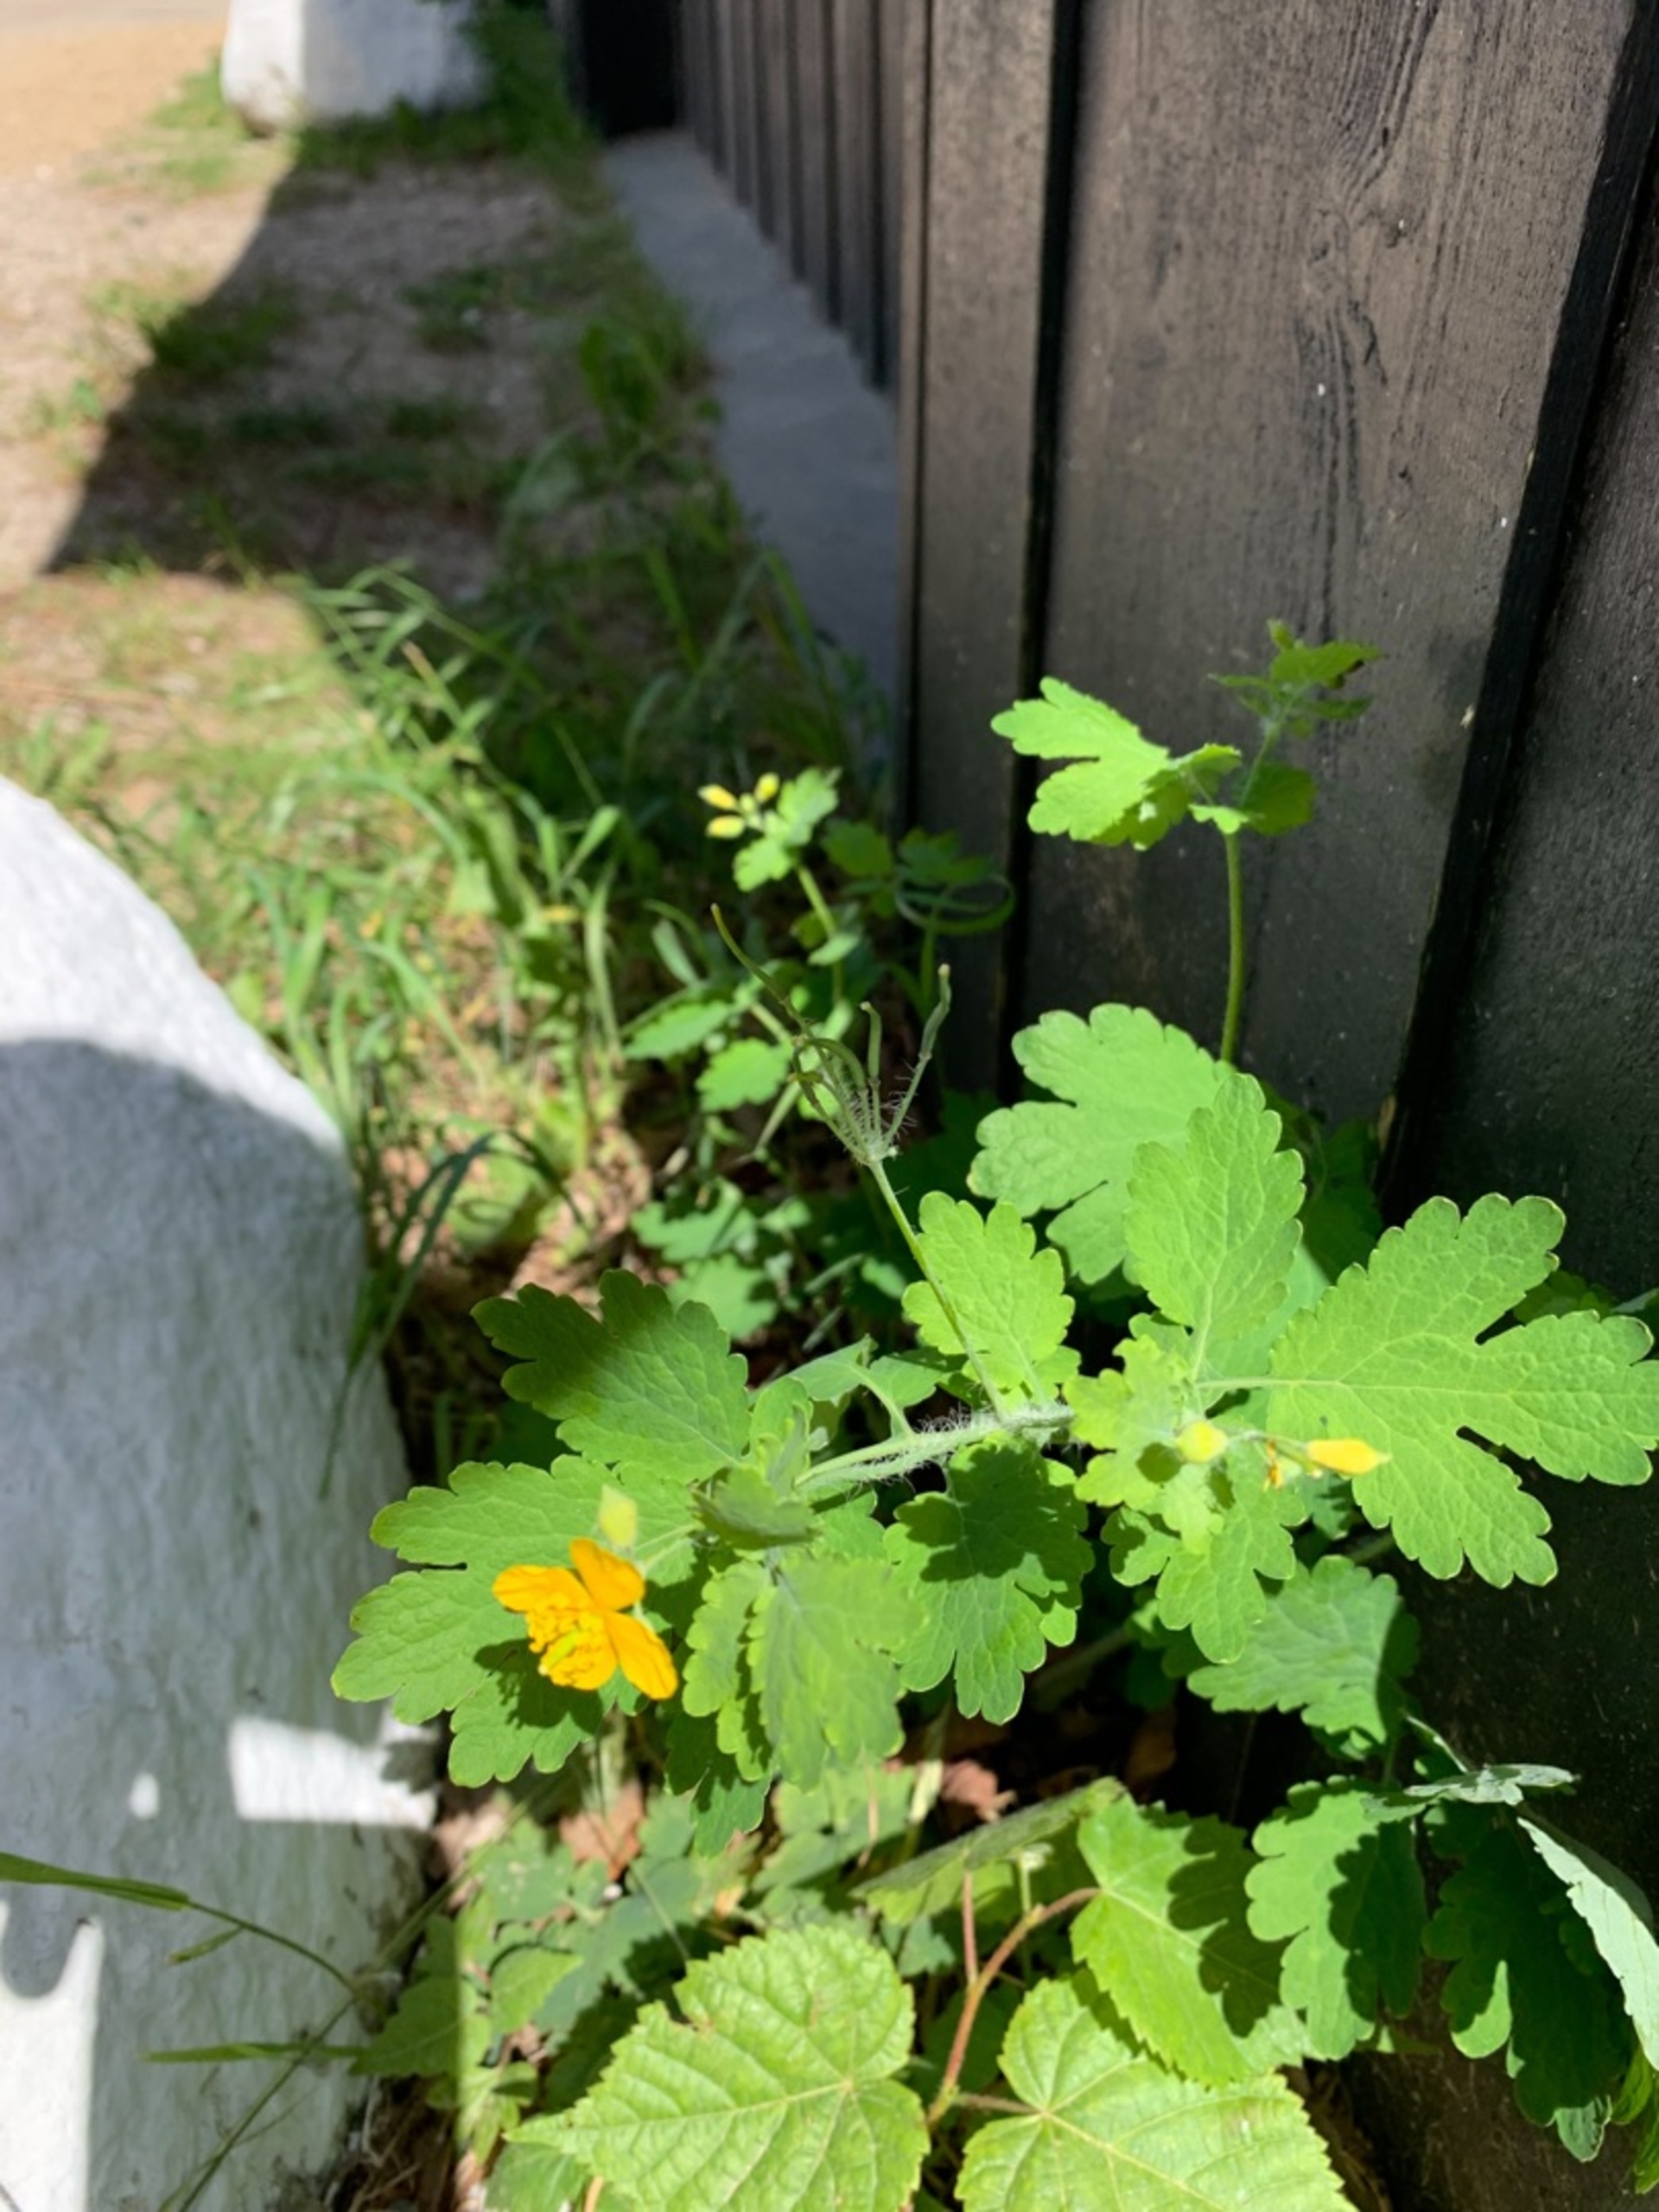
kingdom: Plantae
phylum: Tracheophyta
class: Magnoliopsida
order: Ranunculales
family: Papaveraceae
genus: Chelidonium
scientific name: Chelidonium majus
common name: Svaleurt
